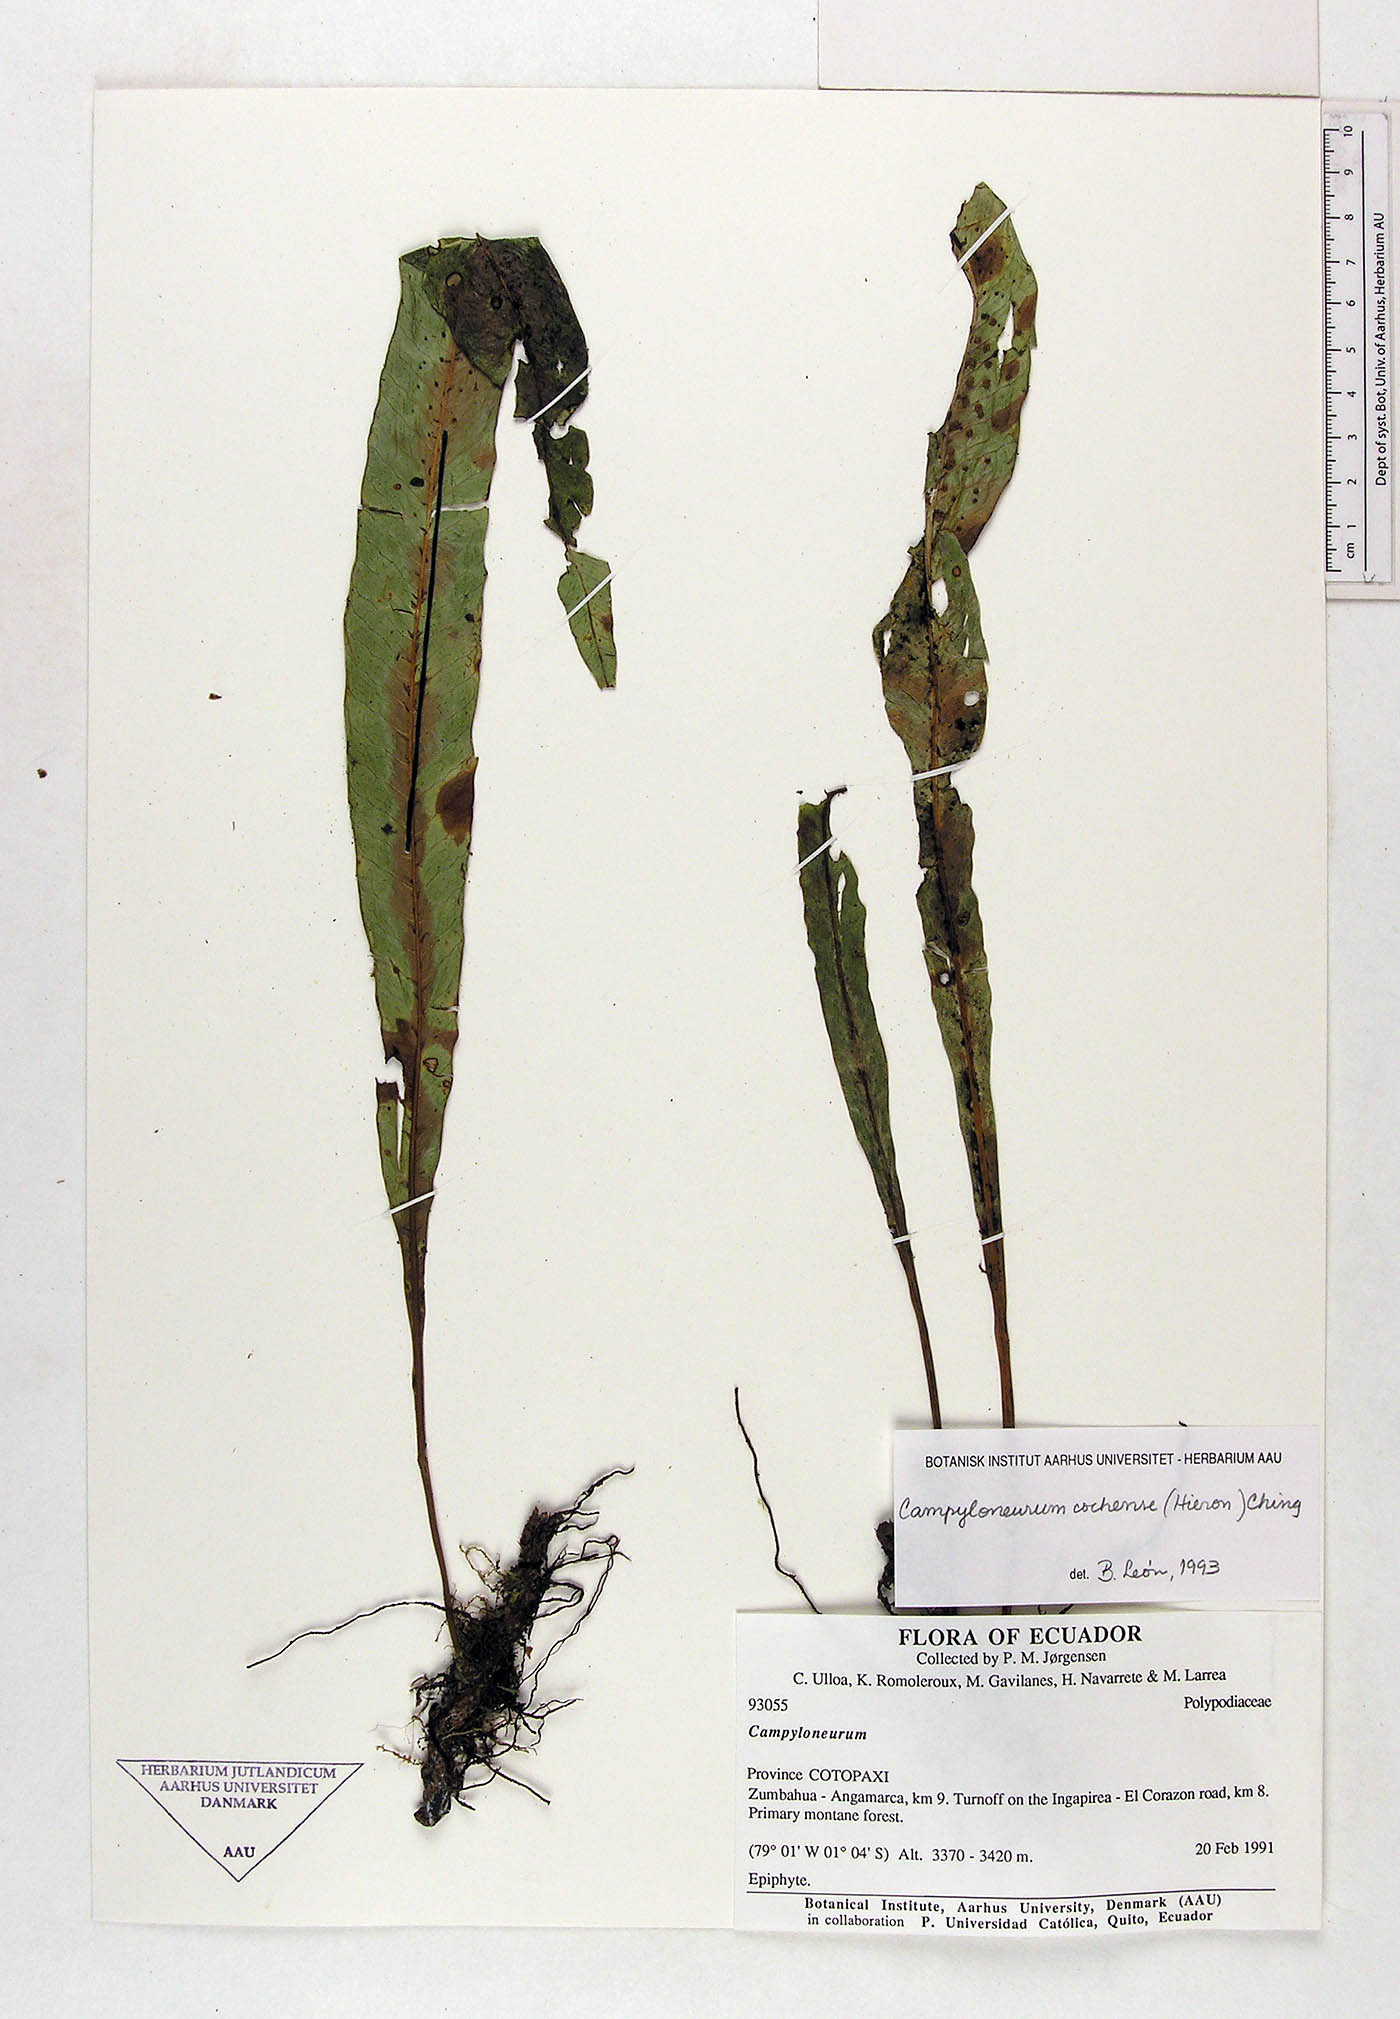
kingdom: Plantae
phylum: Tracheophyta
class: Polypodiopsida
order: Polypodiales
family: Polypodiaceae
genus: Campyloneurum
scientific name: Campyloneurum cochense
